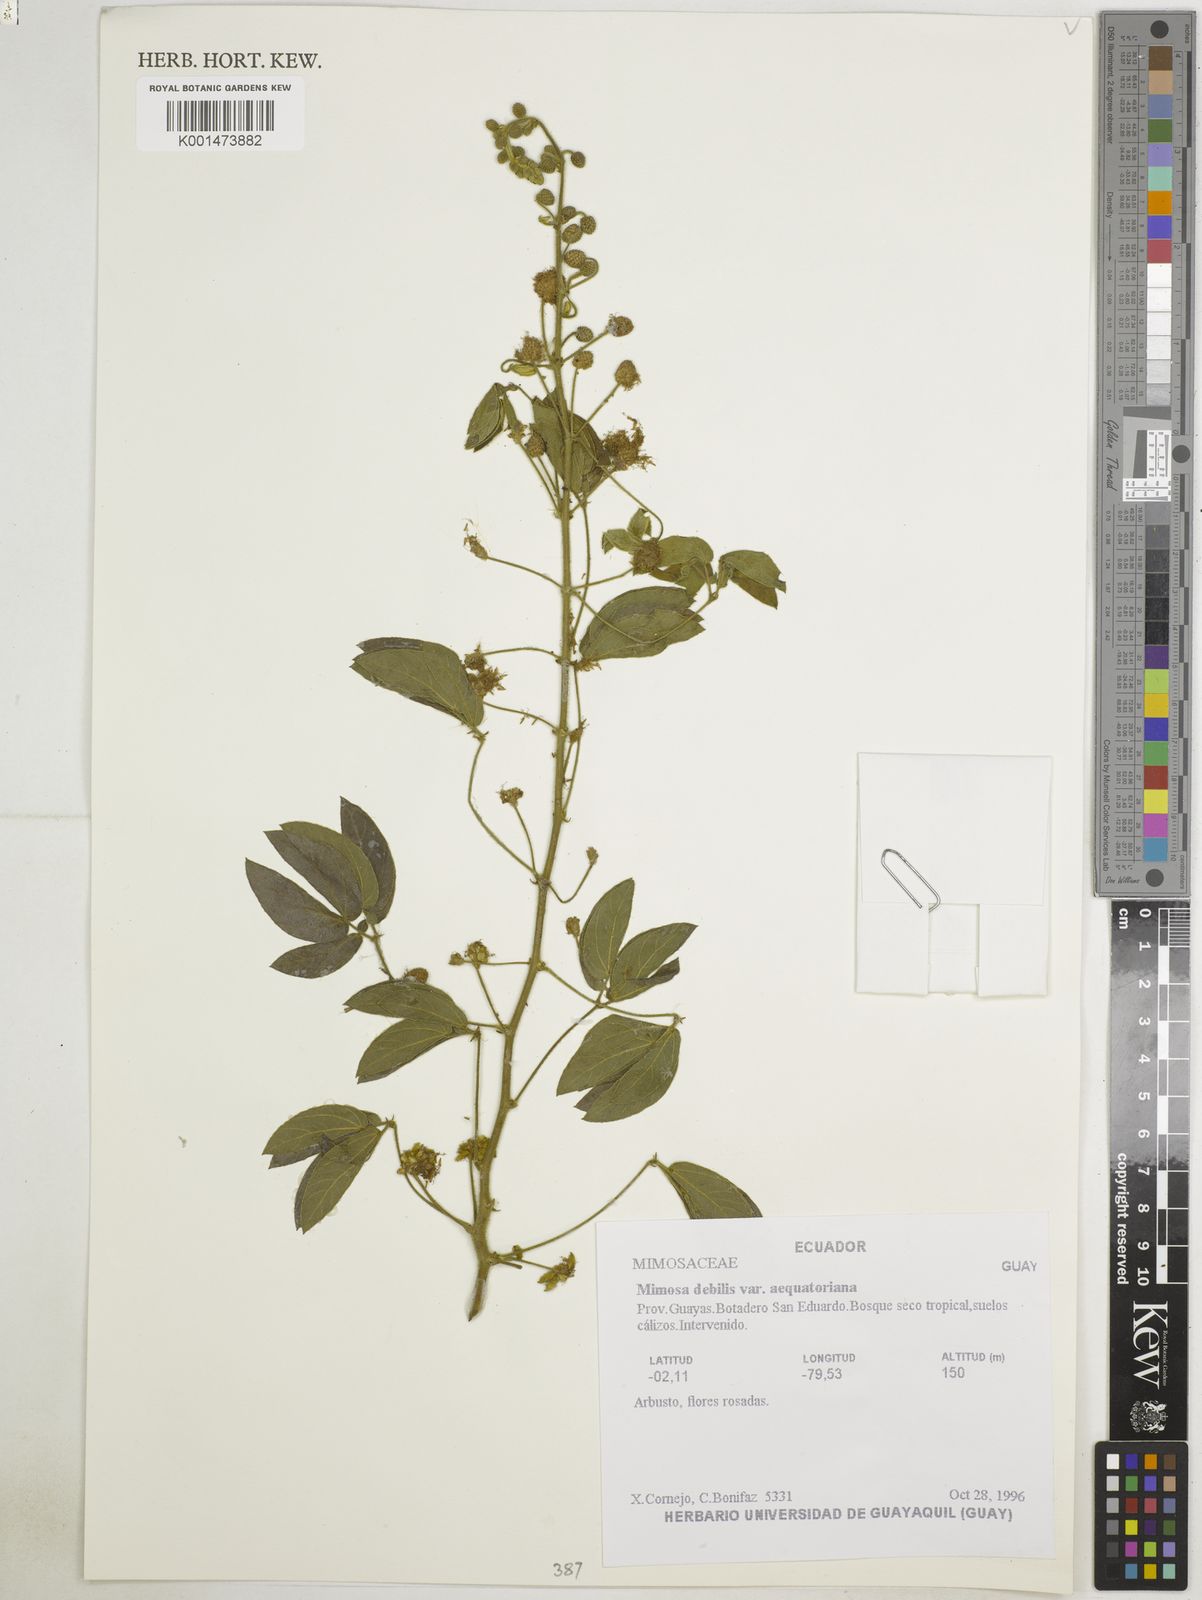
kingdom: Plantae
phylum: Tracheophyta
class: Magnoliopsida
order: Fabales
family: Fabaceae
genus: Mimosa
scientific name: Mimosa debilis
